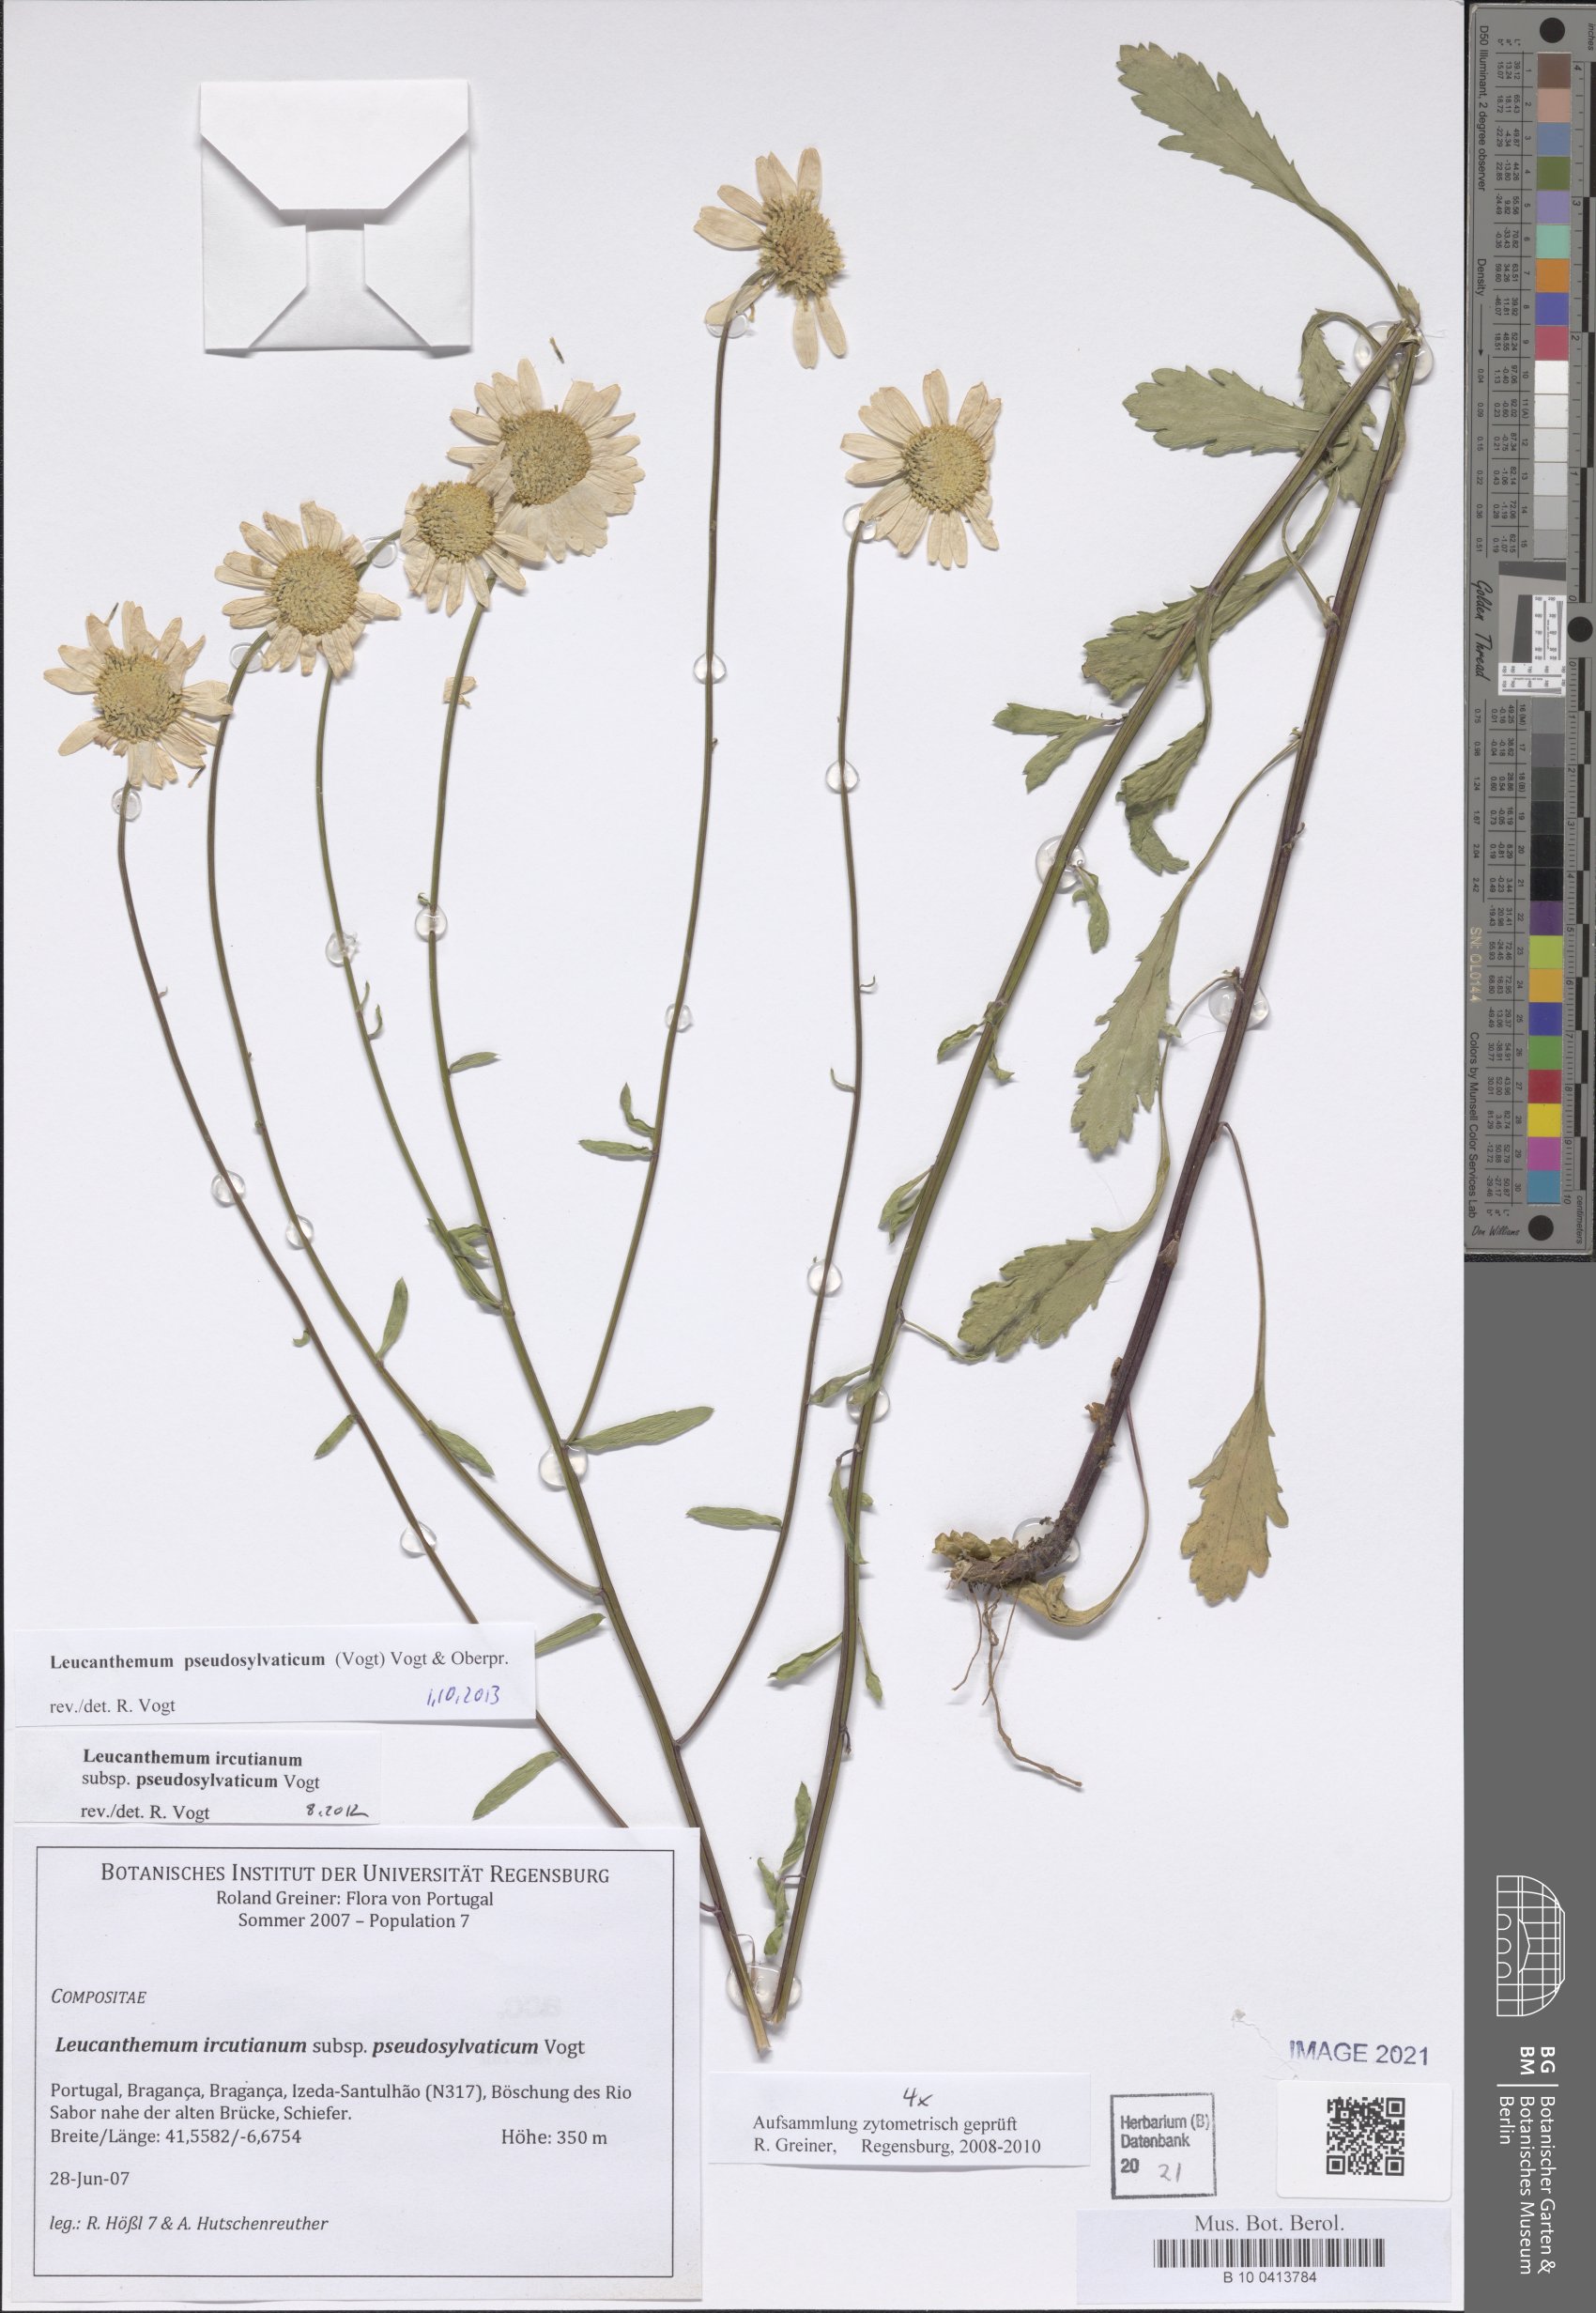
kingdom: Plantae
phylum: Tracheophyta
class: Magnoliopsida
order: Asterales
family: Asteraceae
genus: Leucanthemum
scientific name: Leucanthemum pseudosylvaticum
